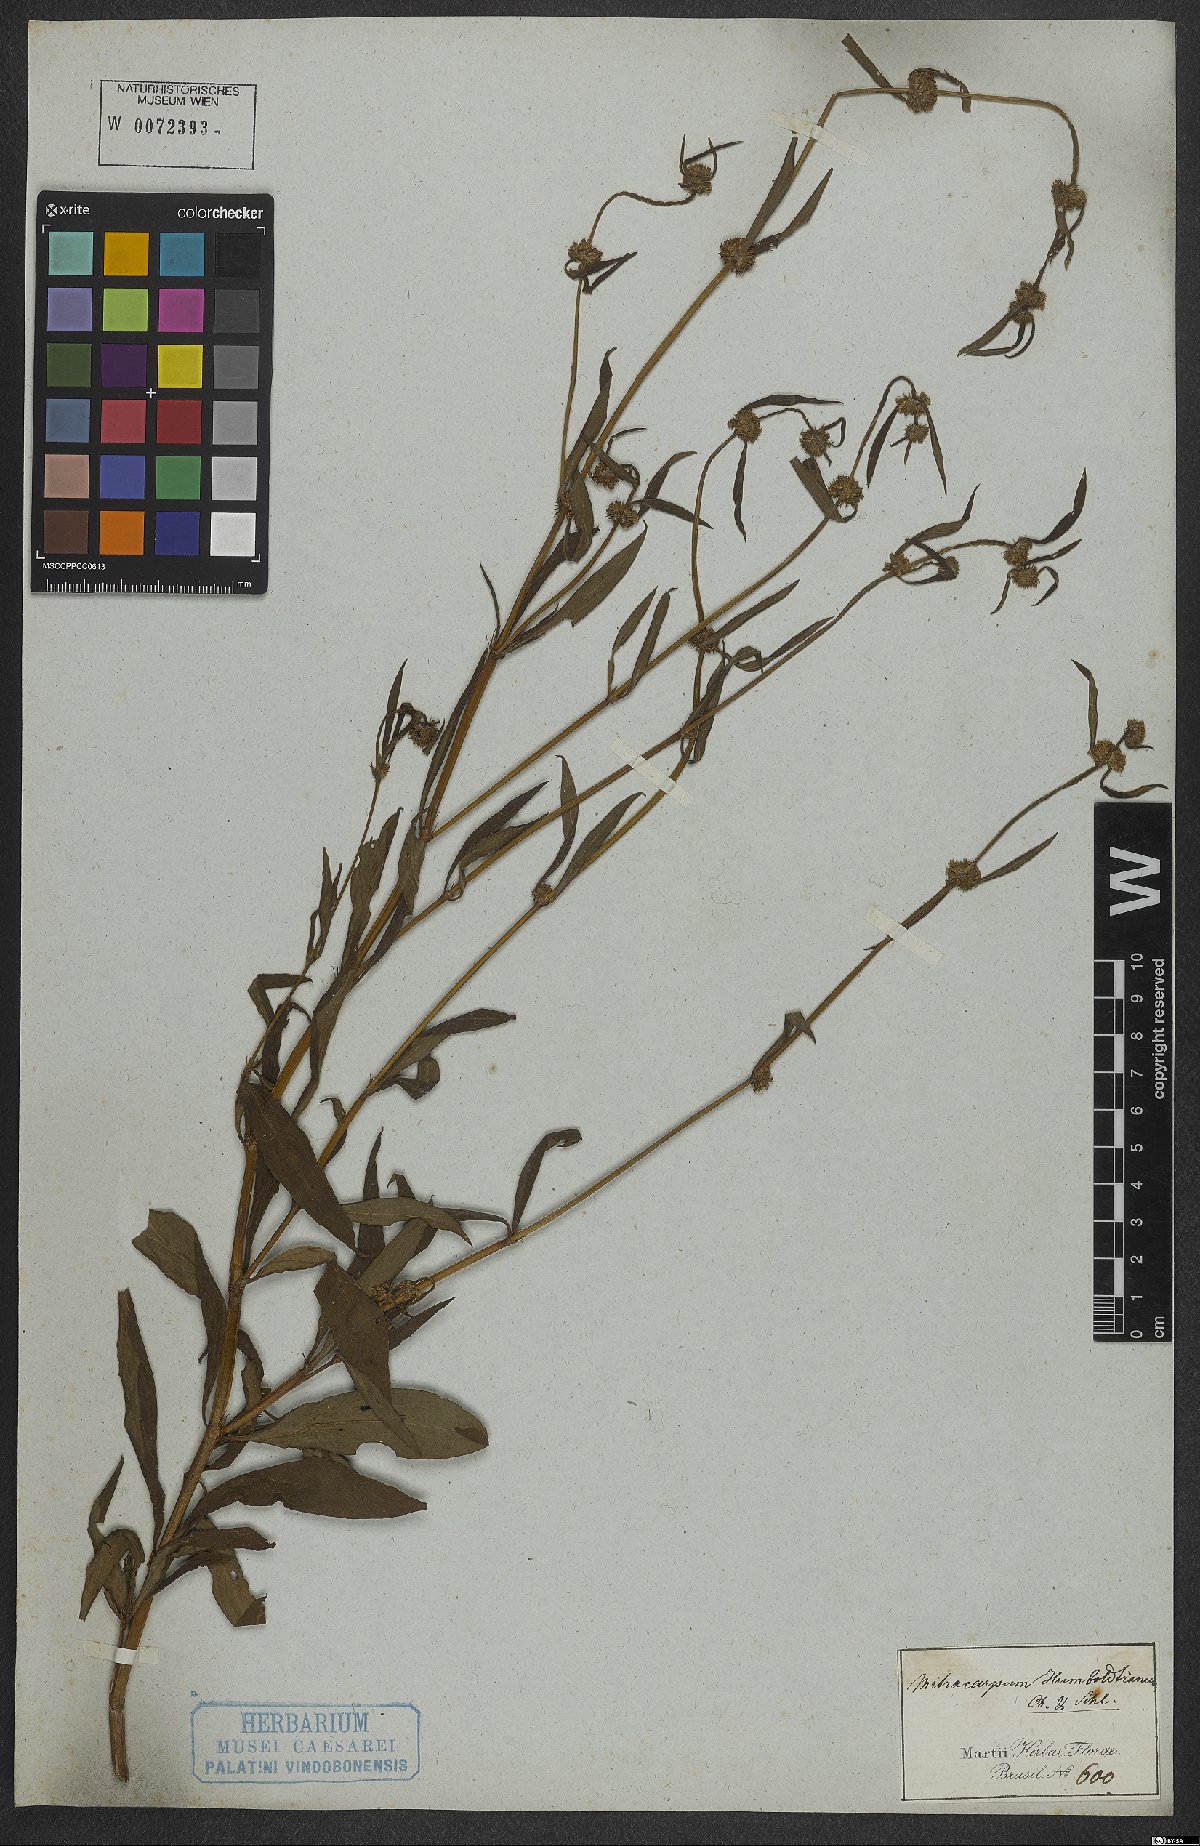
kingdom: Plantae
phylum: Tracheophyta
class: Magnoliopsida
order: Gentianales
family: Rubiaceae
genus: Mitracarpus
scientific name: Mitracarpus frigidus
